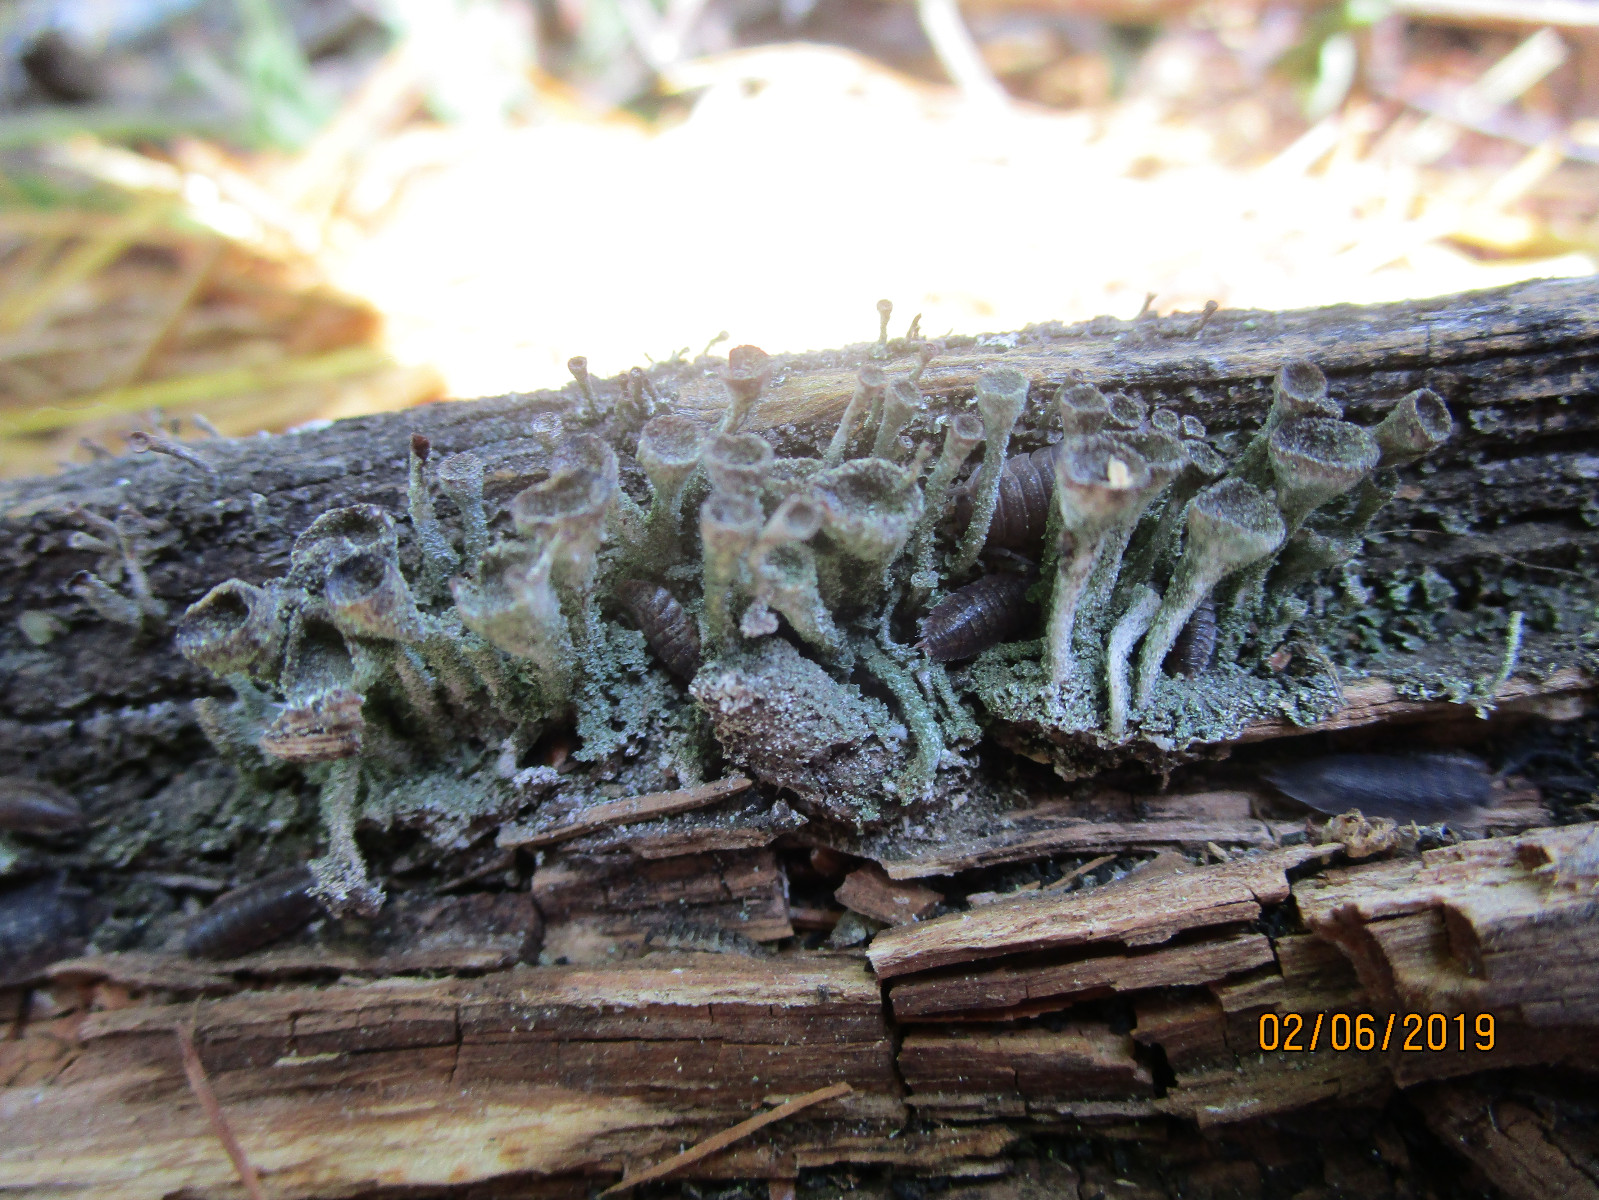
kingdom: Fungi
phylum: Ascomycota
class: Lecanoromycetes
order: Lecanorales
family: Cladoniaceae
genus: Cladonia
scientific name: Cladonia
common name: brungrøn bægerlav
